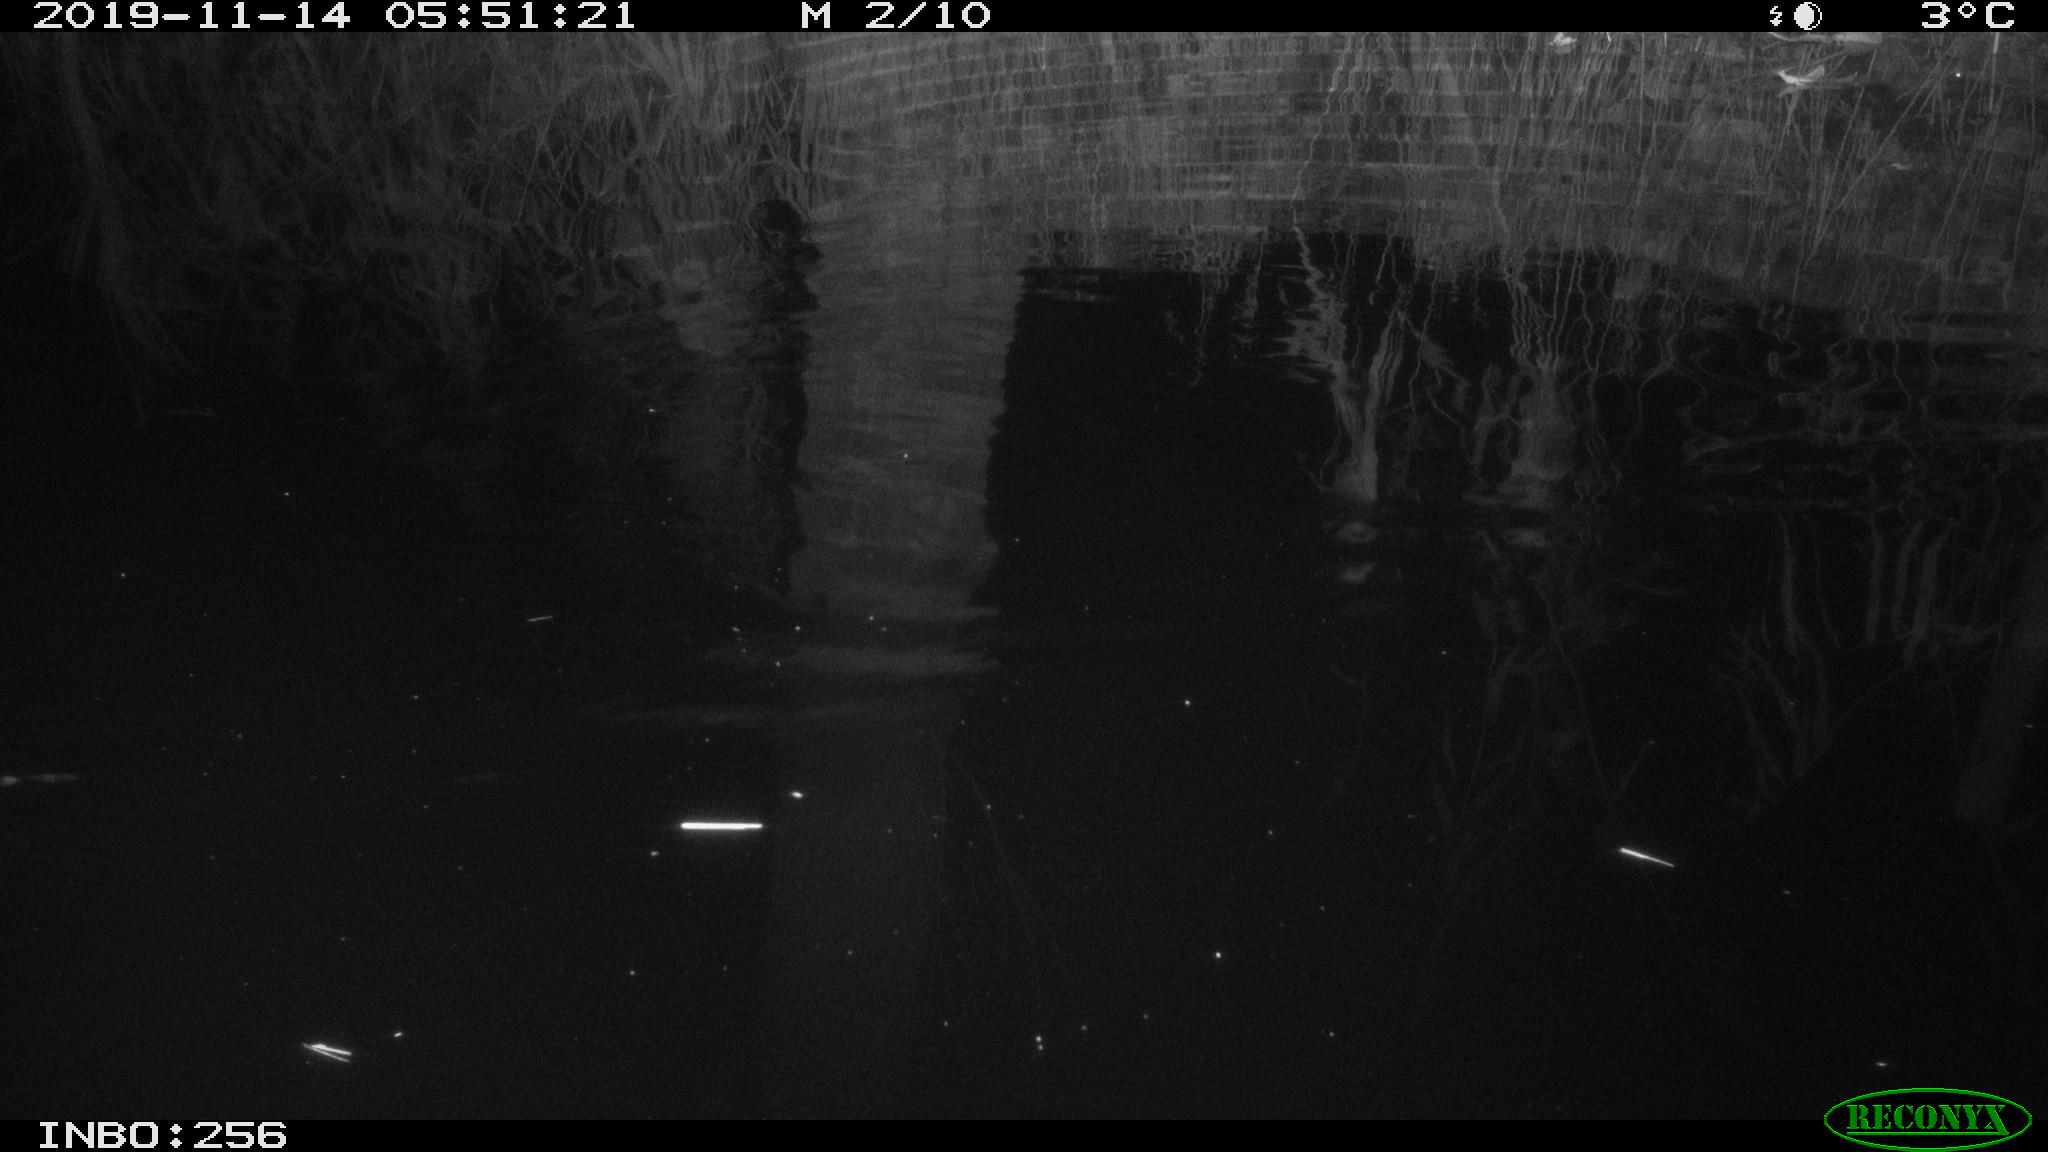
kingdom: Animalia
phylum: Chordata
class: Mammalia
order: Rodentia
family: Muridae
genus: Rattus
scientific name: Rattus norvegicus
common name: Brown rat
